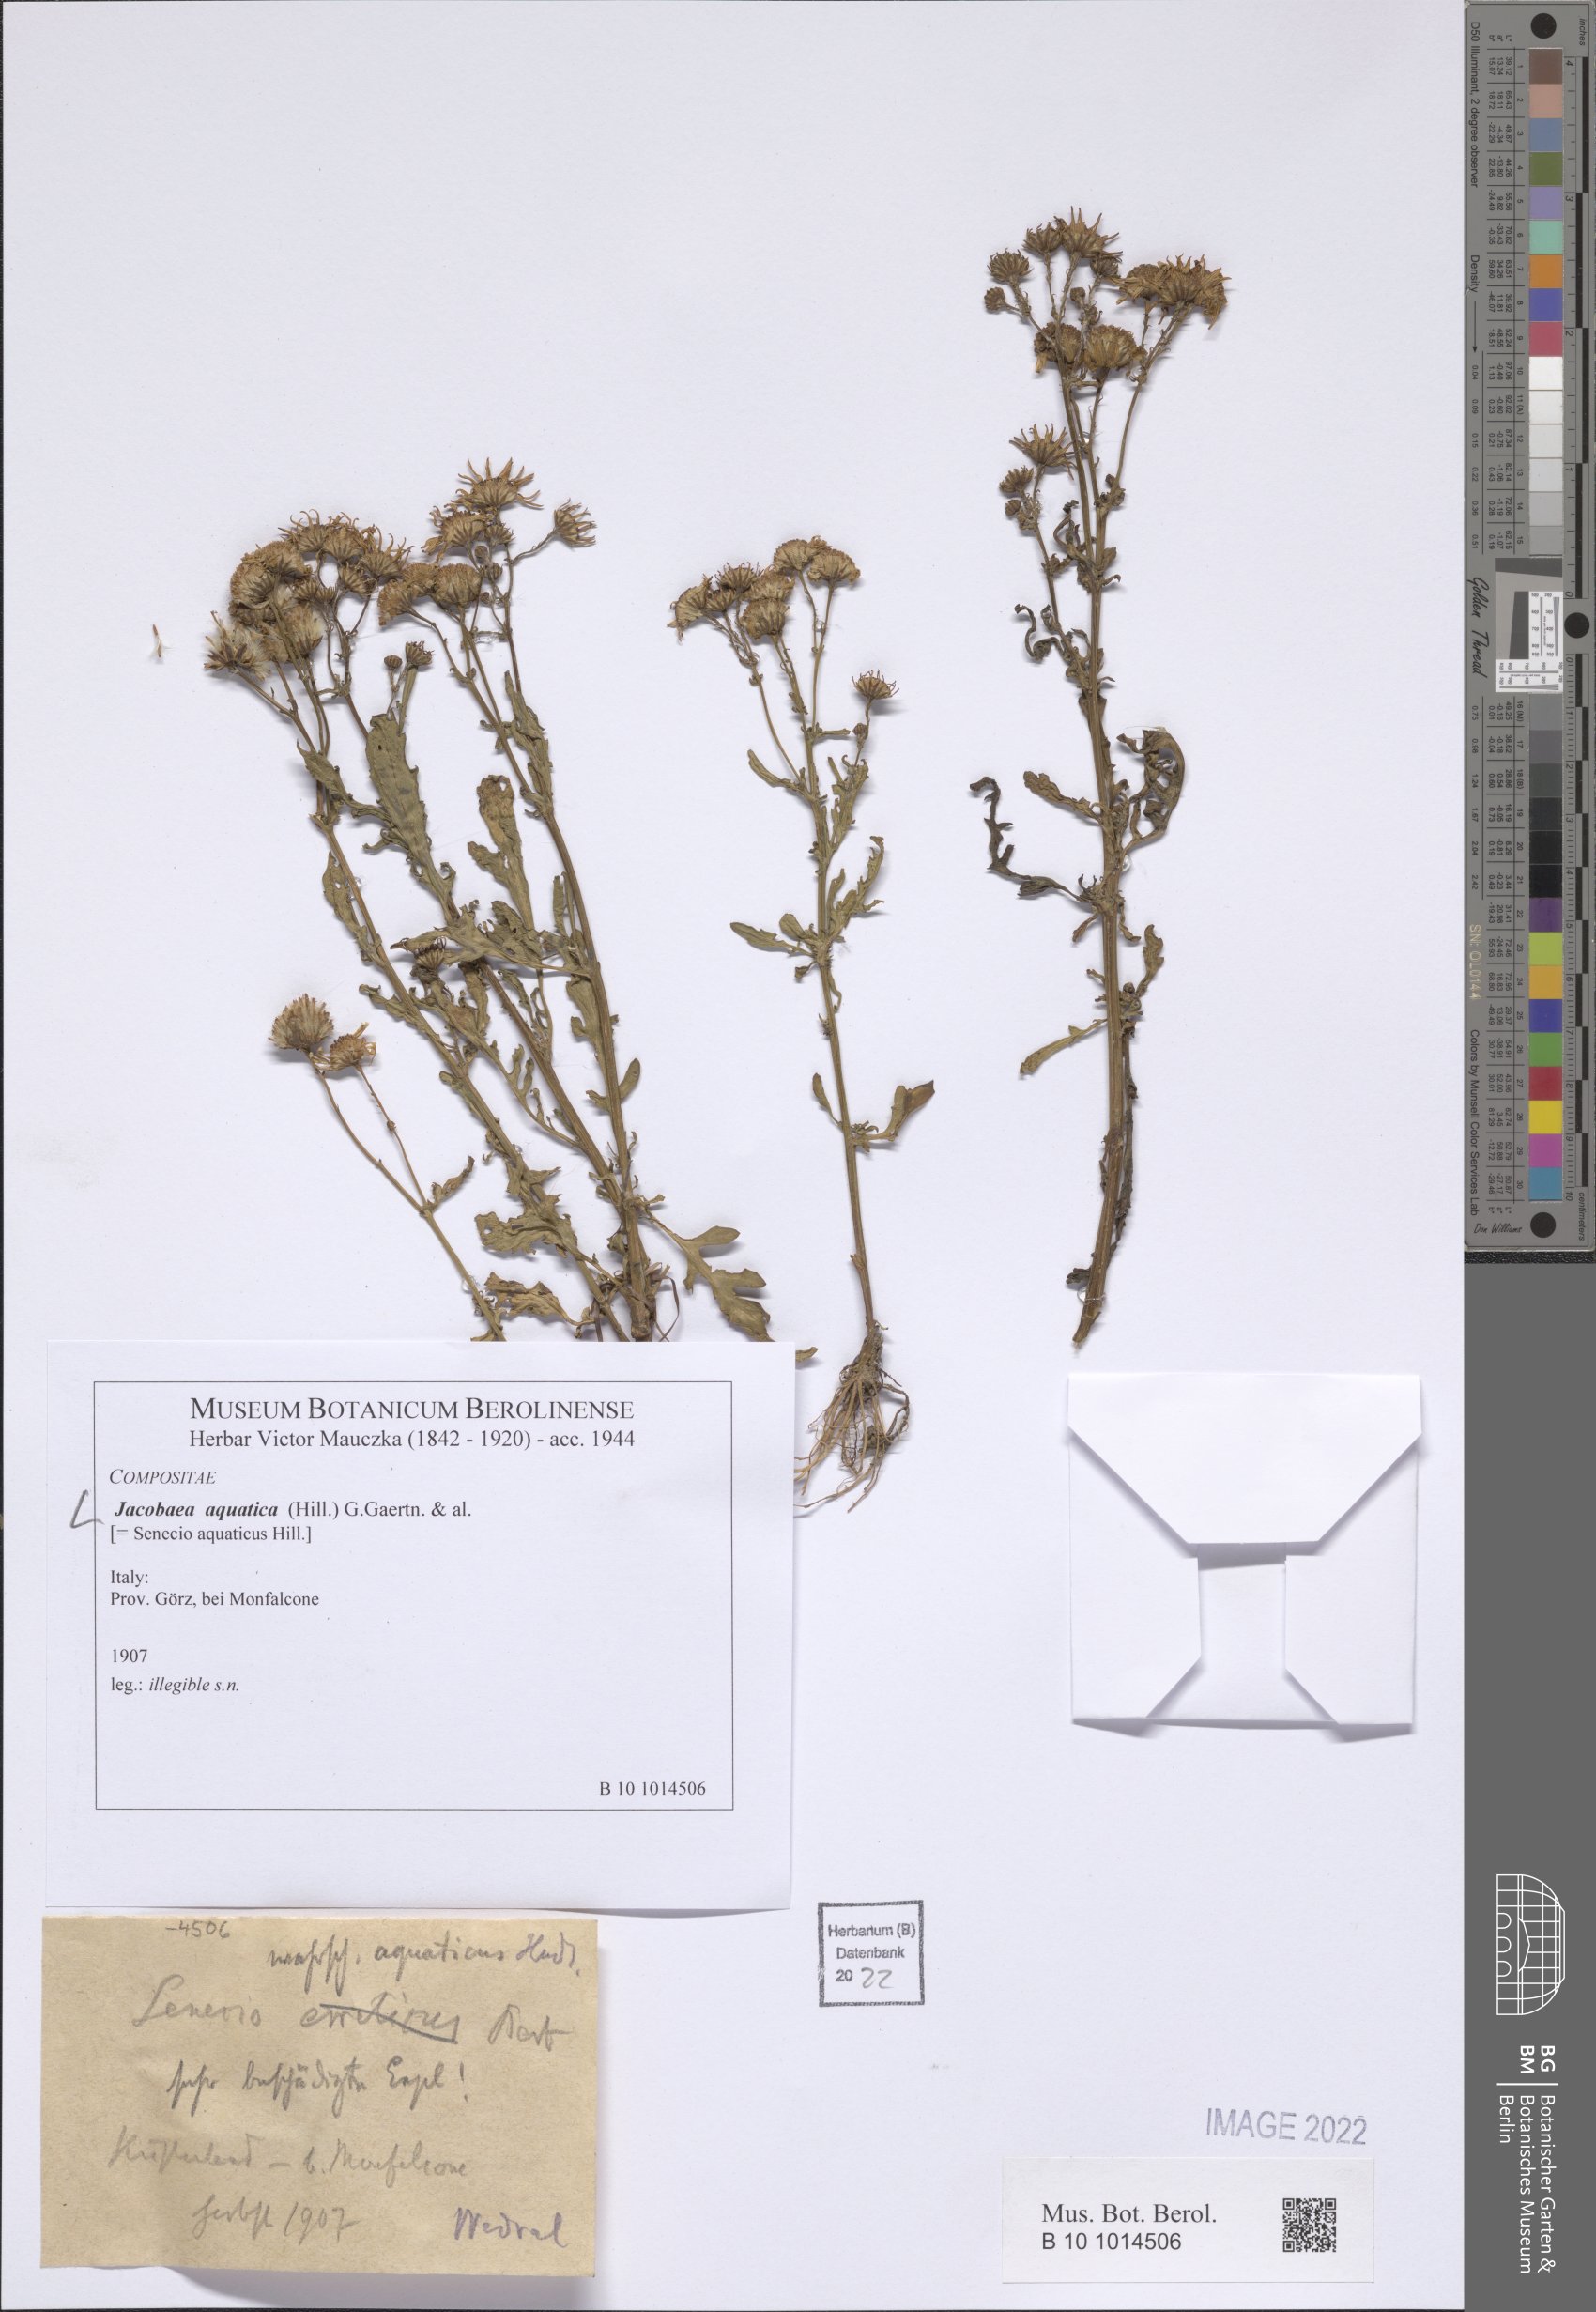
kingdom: Plantae
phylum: Tracheophyta
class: Magnoliopsida
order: Asterales
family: Asteraceae
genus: Jacobaea
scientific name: Jacobaea aquatica
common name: Water ragwort
